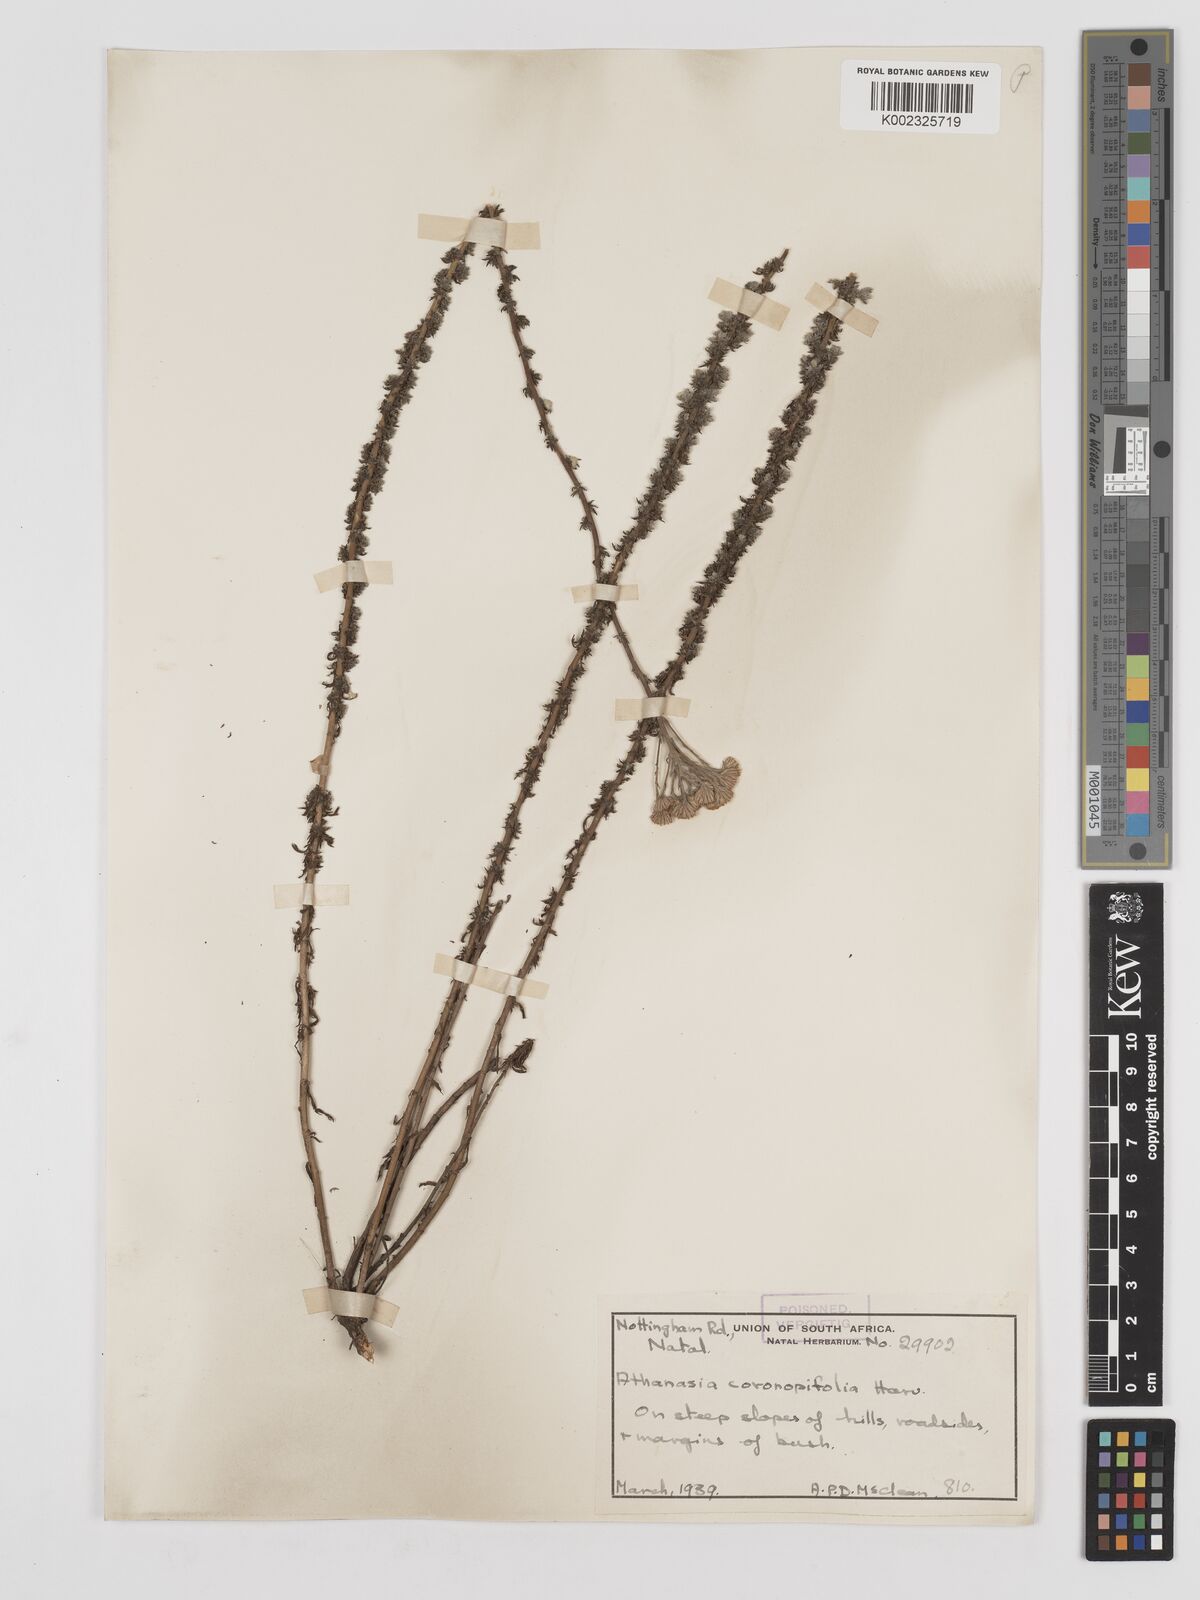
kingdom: Plantae
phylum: Tracheophyta
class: Magnoliopsida
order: Asterales
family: Asteraceae
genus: Inulanthera
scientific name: Inulanthera coronopifolia
